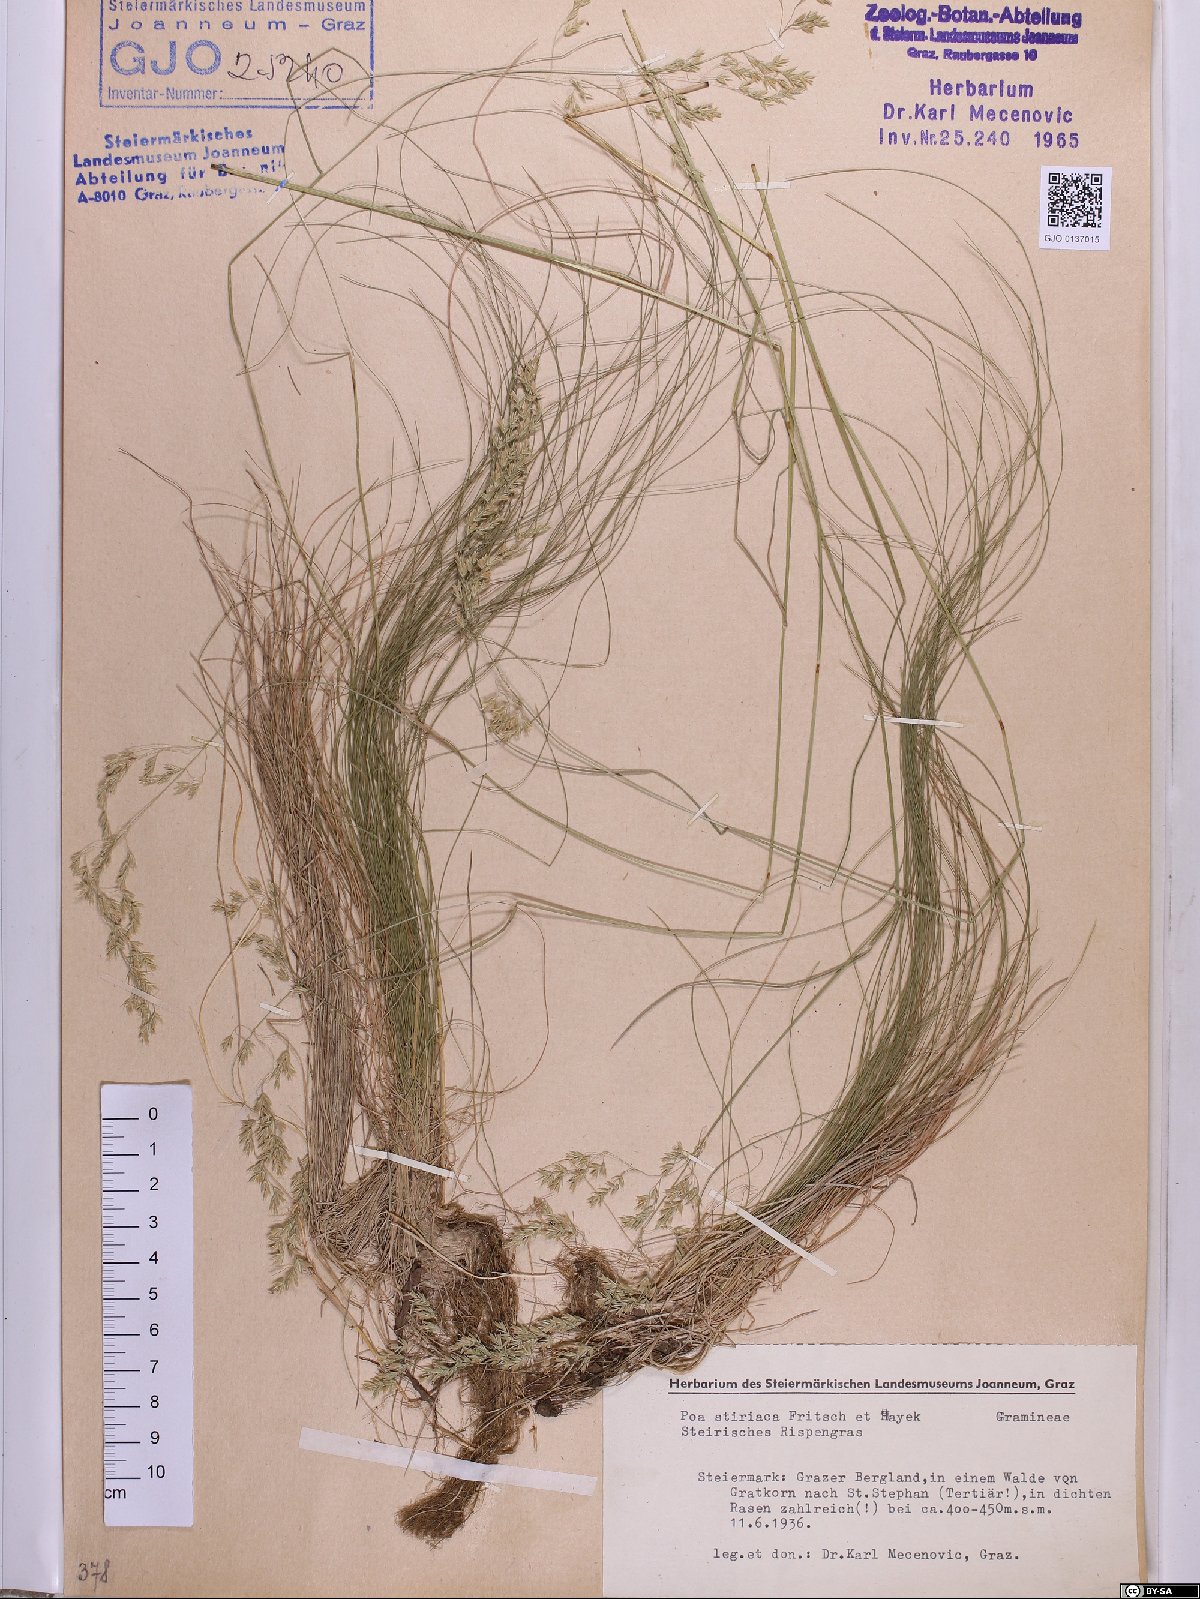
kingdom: Plantae
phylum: Tracheophyta
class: Liliopsida
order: Poales
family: Poaceae
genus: Poa
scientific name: Poa stiriaca
